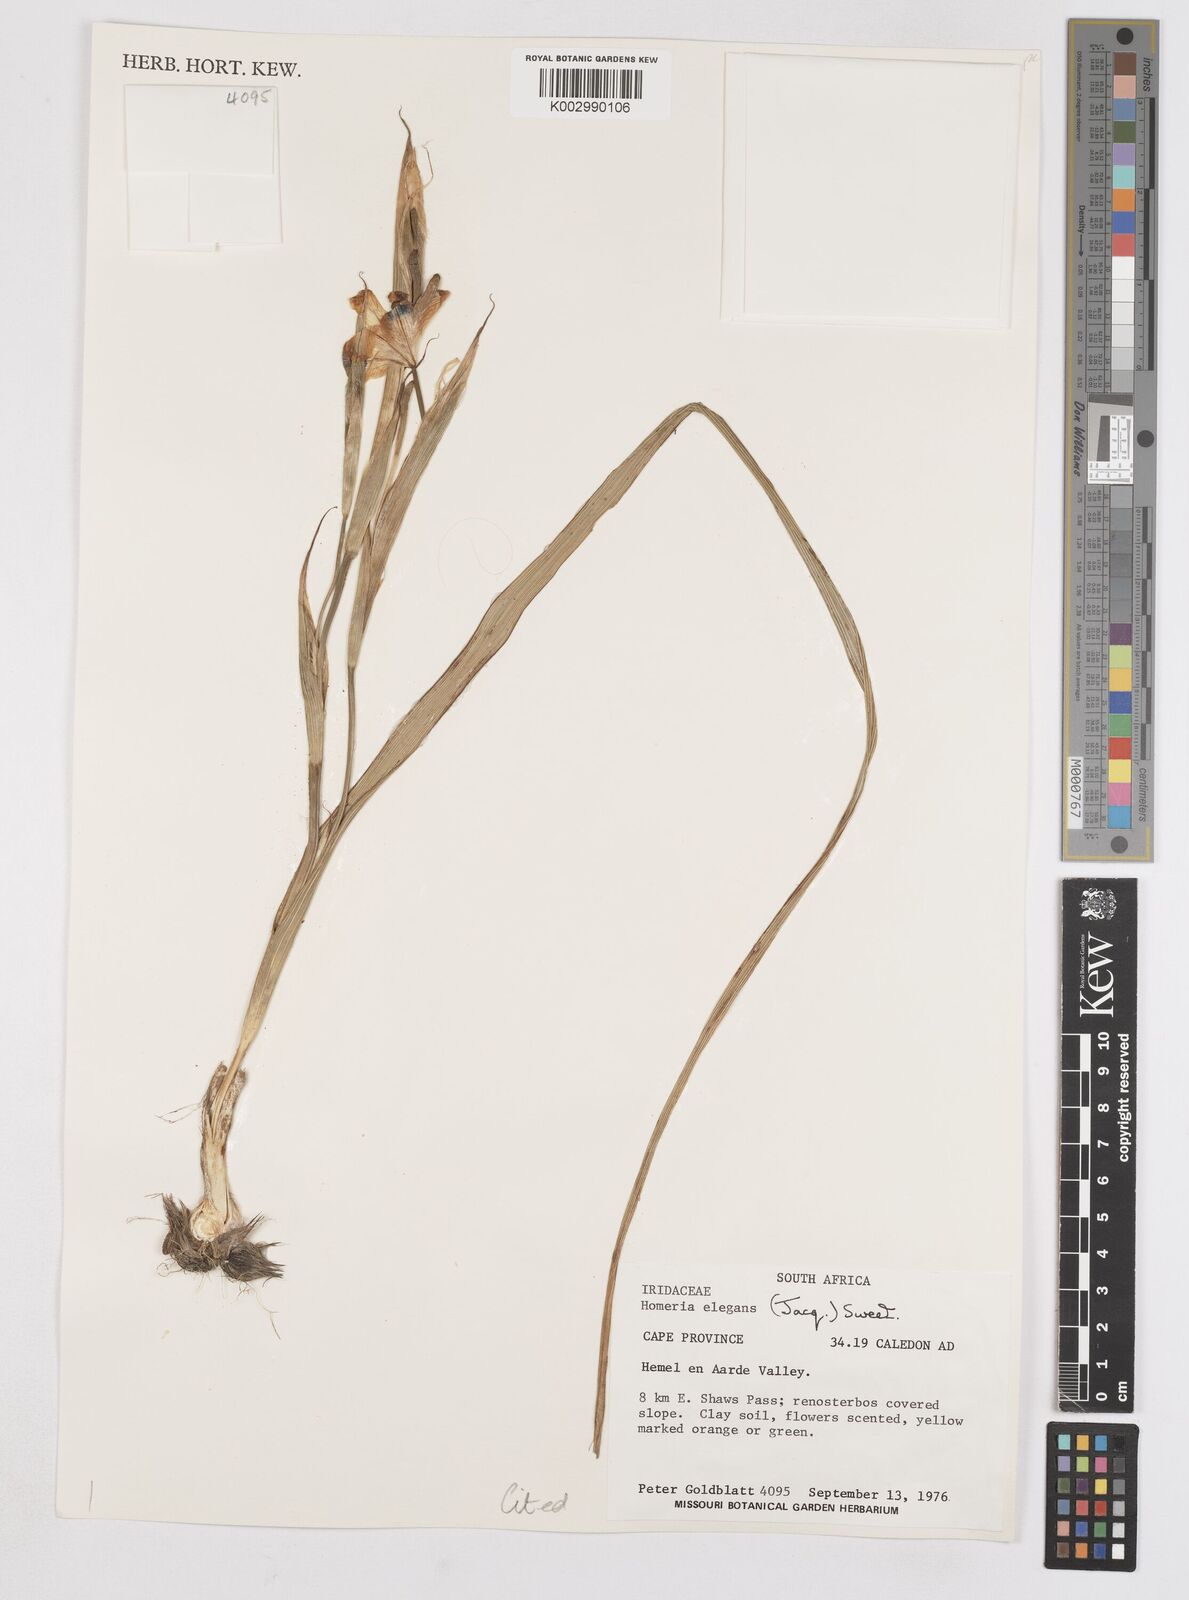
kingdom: Plantae
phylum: Tracheophyta
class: Liliopsida
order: Asparagales
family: Iridaceae
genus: Moraea
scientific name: Moraea elegans
